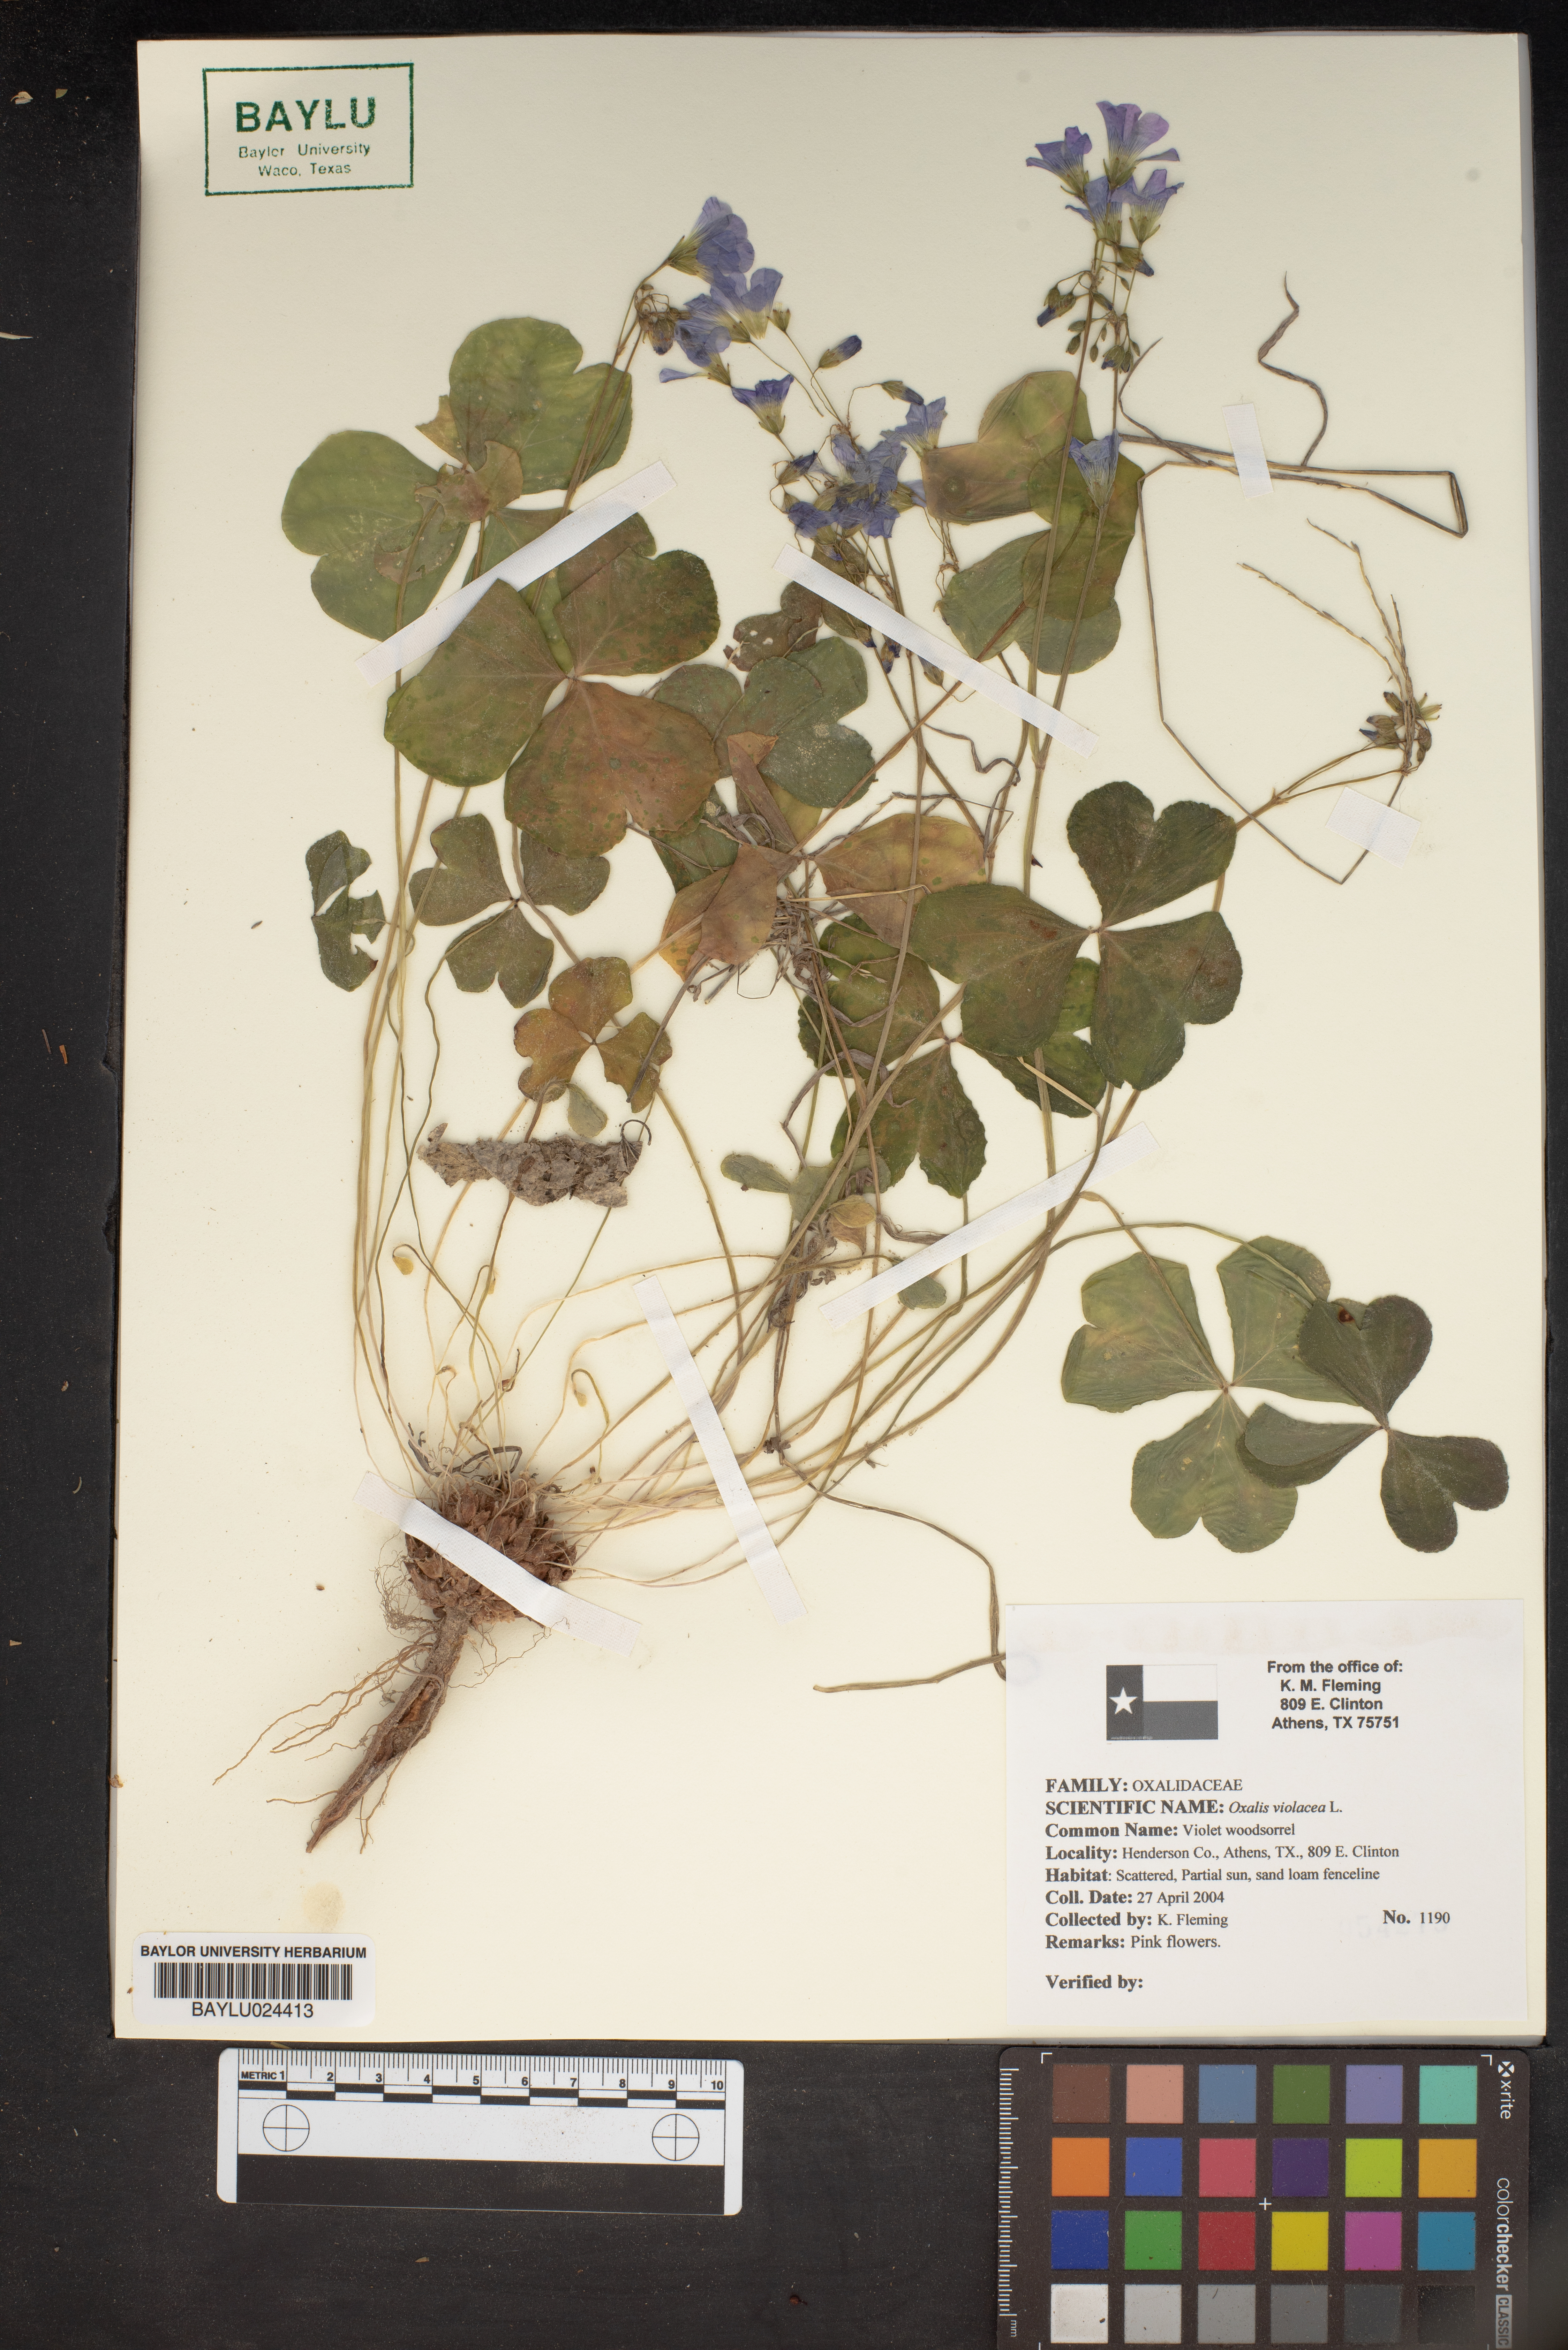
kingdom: Plantae
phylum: Tracheophyta
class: Magnoliopsida
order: Oxalidales
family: Oxalidaceae
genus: Oxalis
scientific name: Oxalis violacea
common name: Violet wood-sorrel
